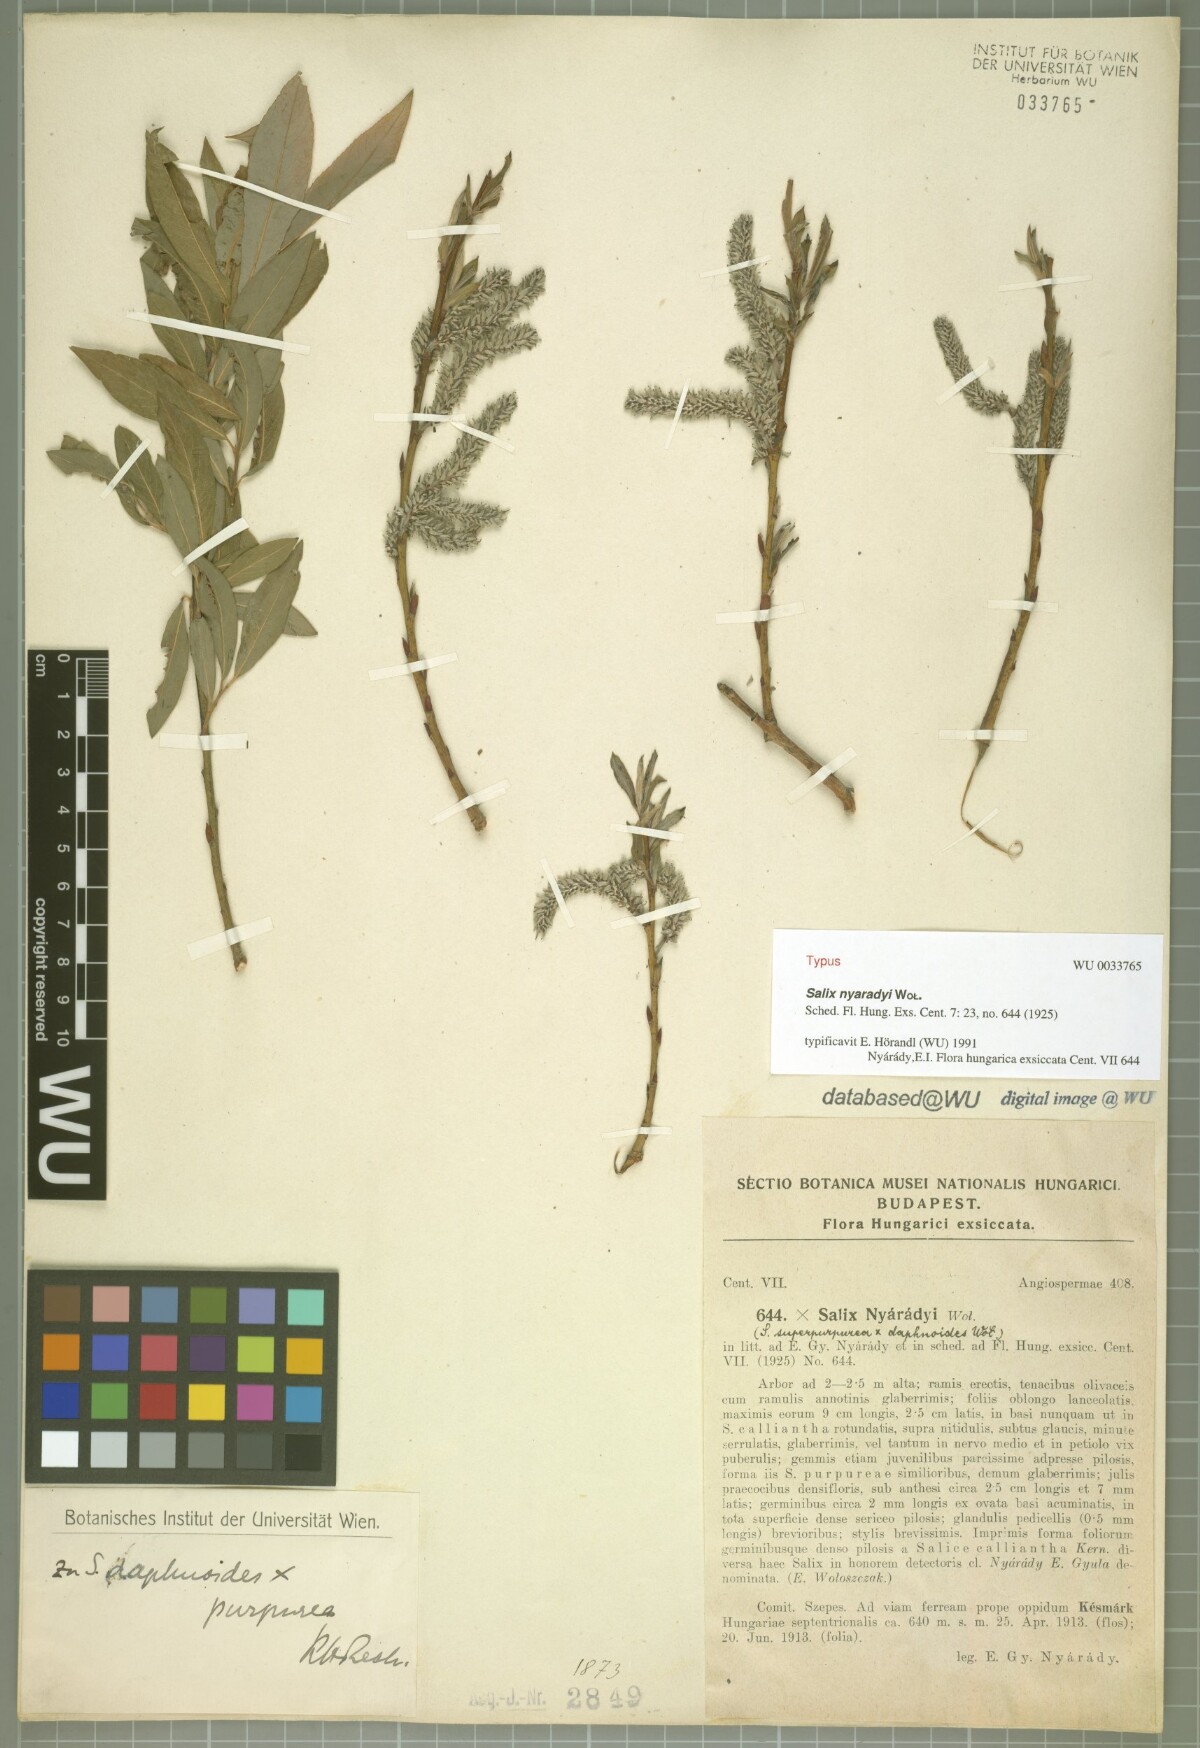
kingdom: Plantae
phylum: Tracheophyta
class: Magnoliopsida
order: Malpighiales
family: Salicaceae
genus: Salix
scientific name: Salix nyaradyi
